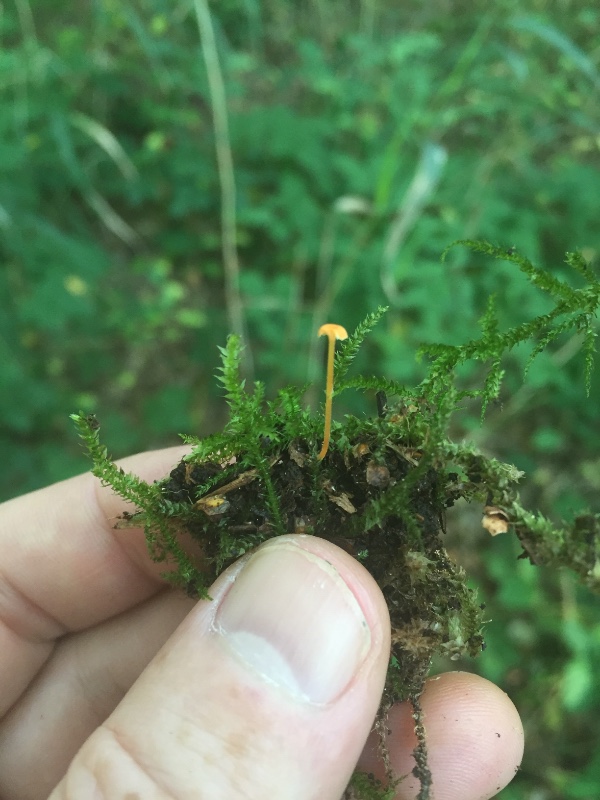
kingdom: Fungi
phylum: Basidiomycota
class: Agaricomycetes
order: Hymenochaetales
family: Rickenellaceae
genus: Rickenella
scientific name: Rickenella fibula
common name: orange mosnavlehat
